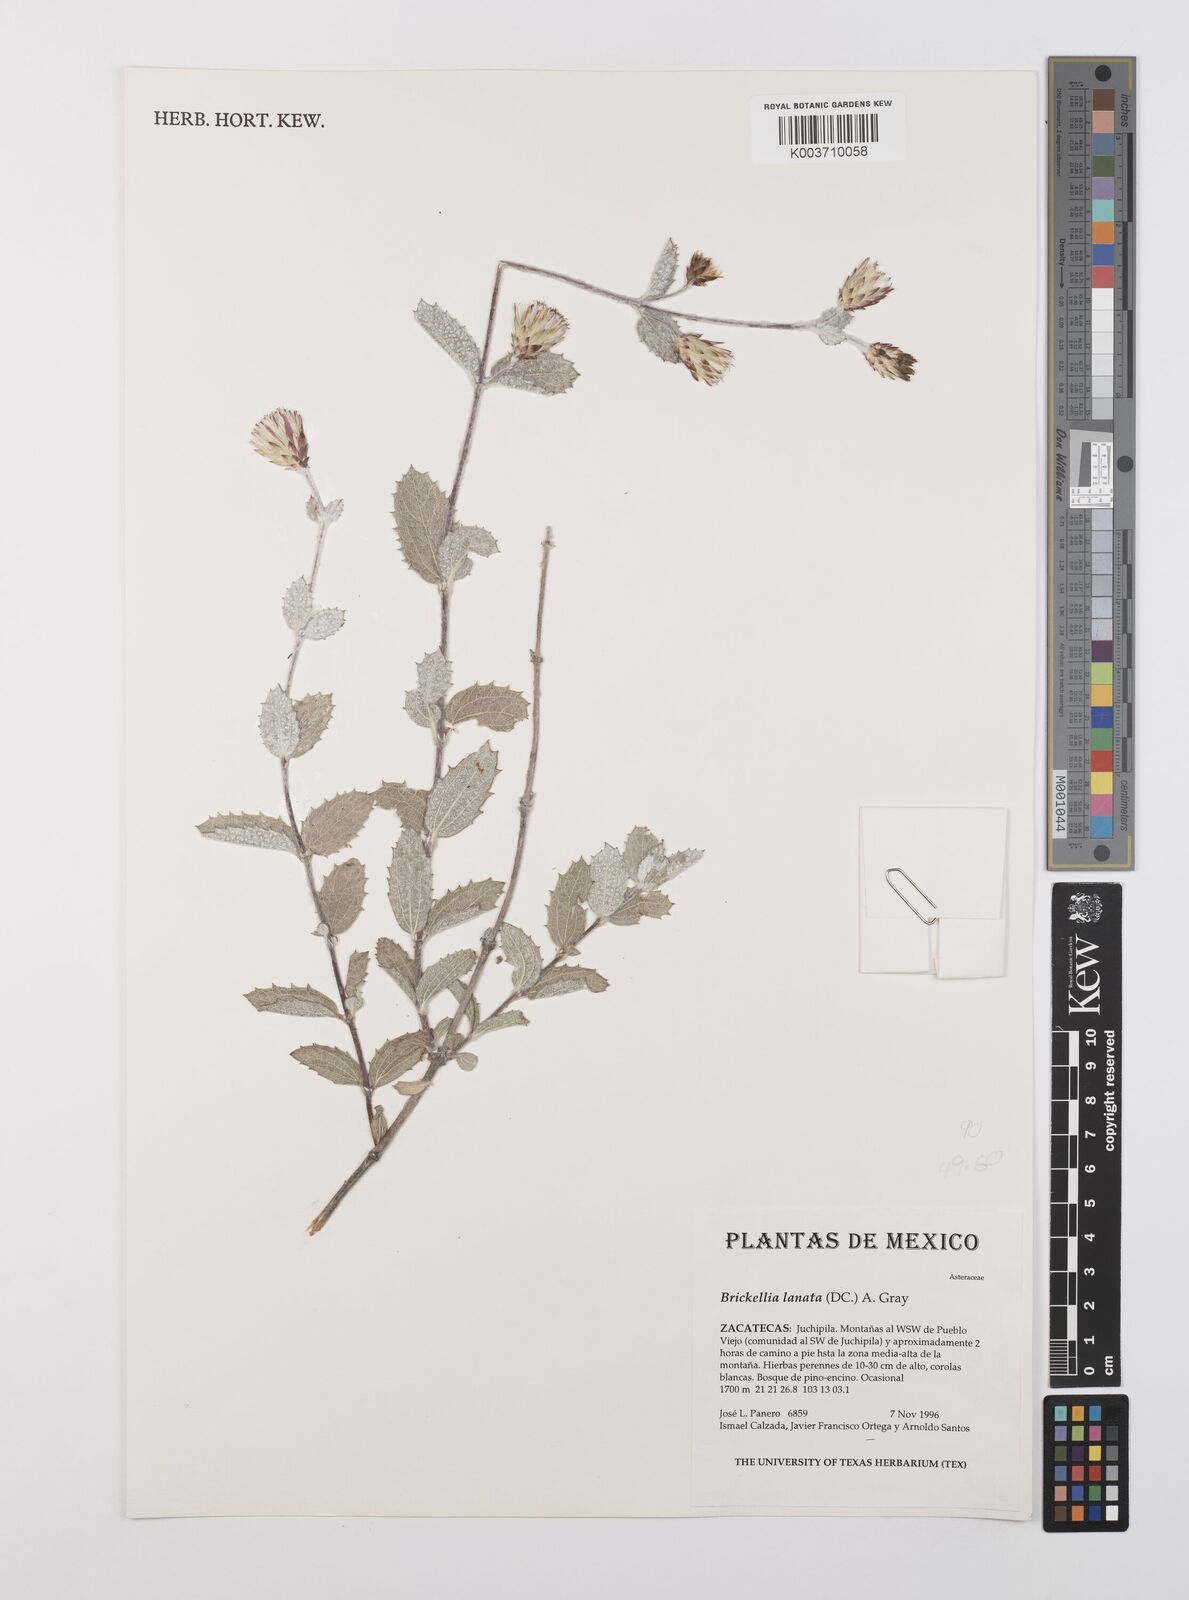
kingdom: Plantae
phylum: Tracheophyta
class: Magnoliopsida
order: Asterales
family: Asteraceae
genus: Brickellia
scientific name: Brickellia lanata
